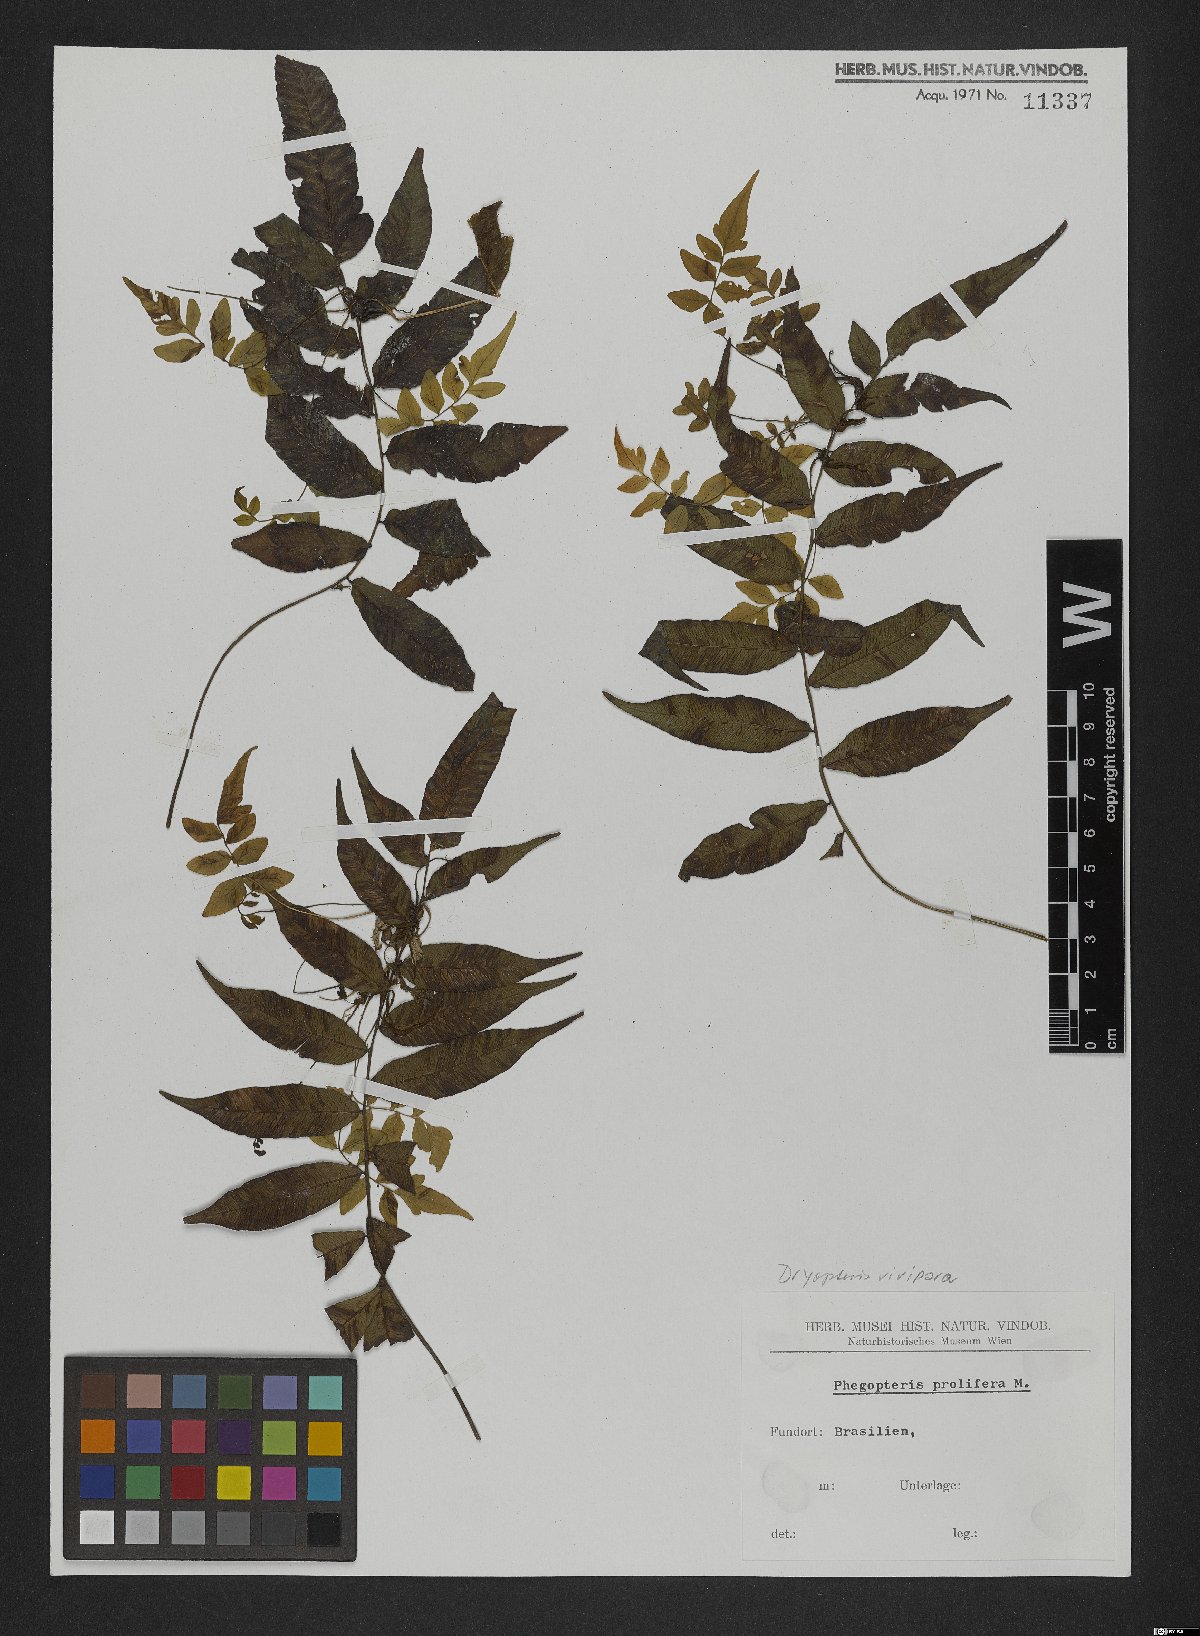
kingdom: Plantae
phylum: Tracheophyta
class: Polypodiopsida
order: Polypodiales
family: Thelypteridaceae
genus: Goniopteris
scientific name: Goniopteris vivipara
